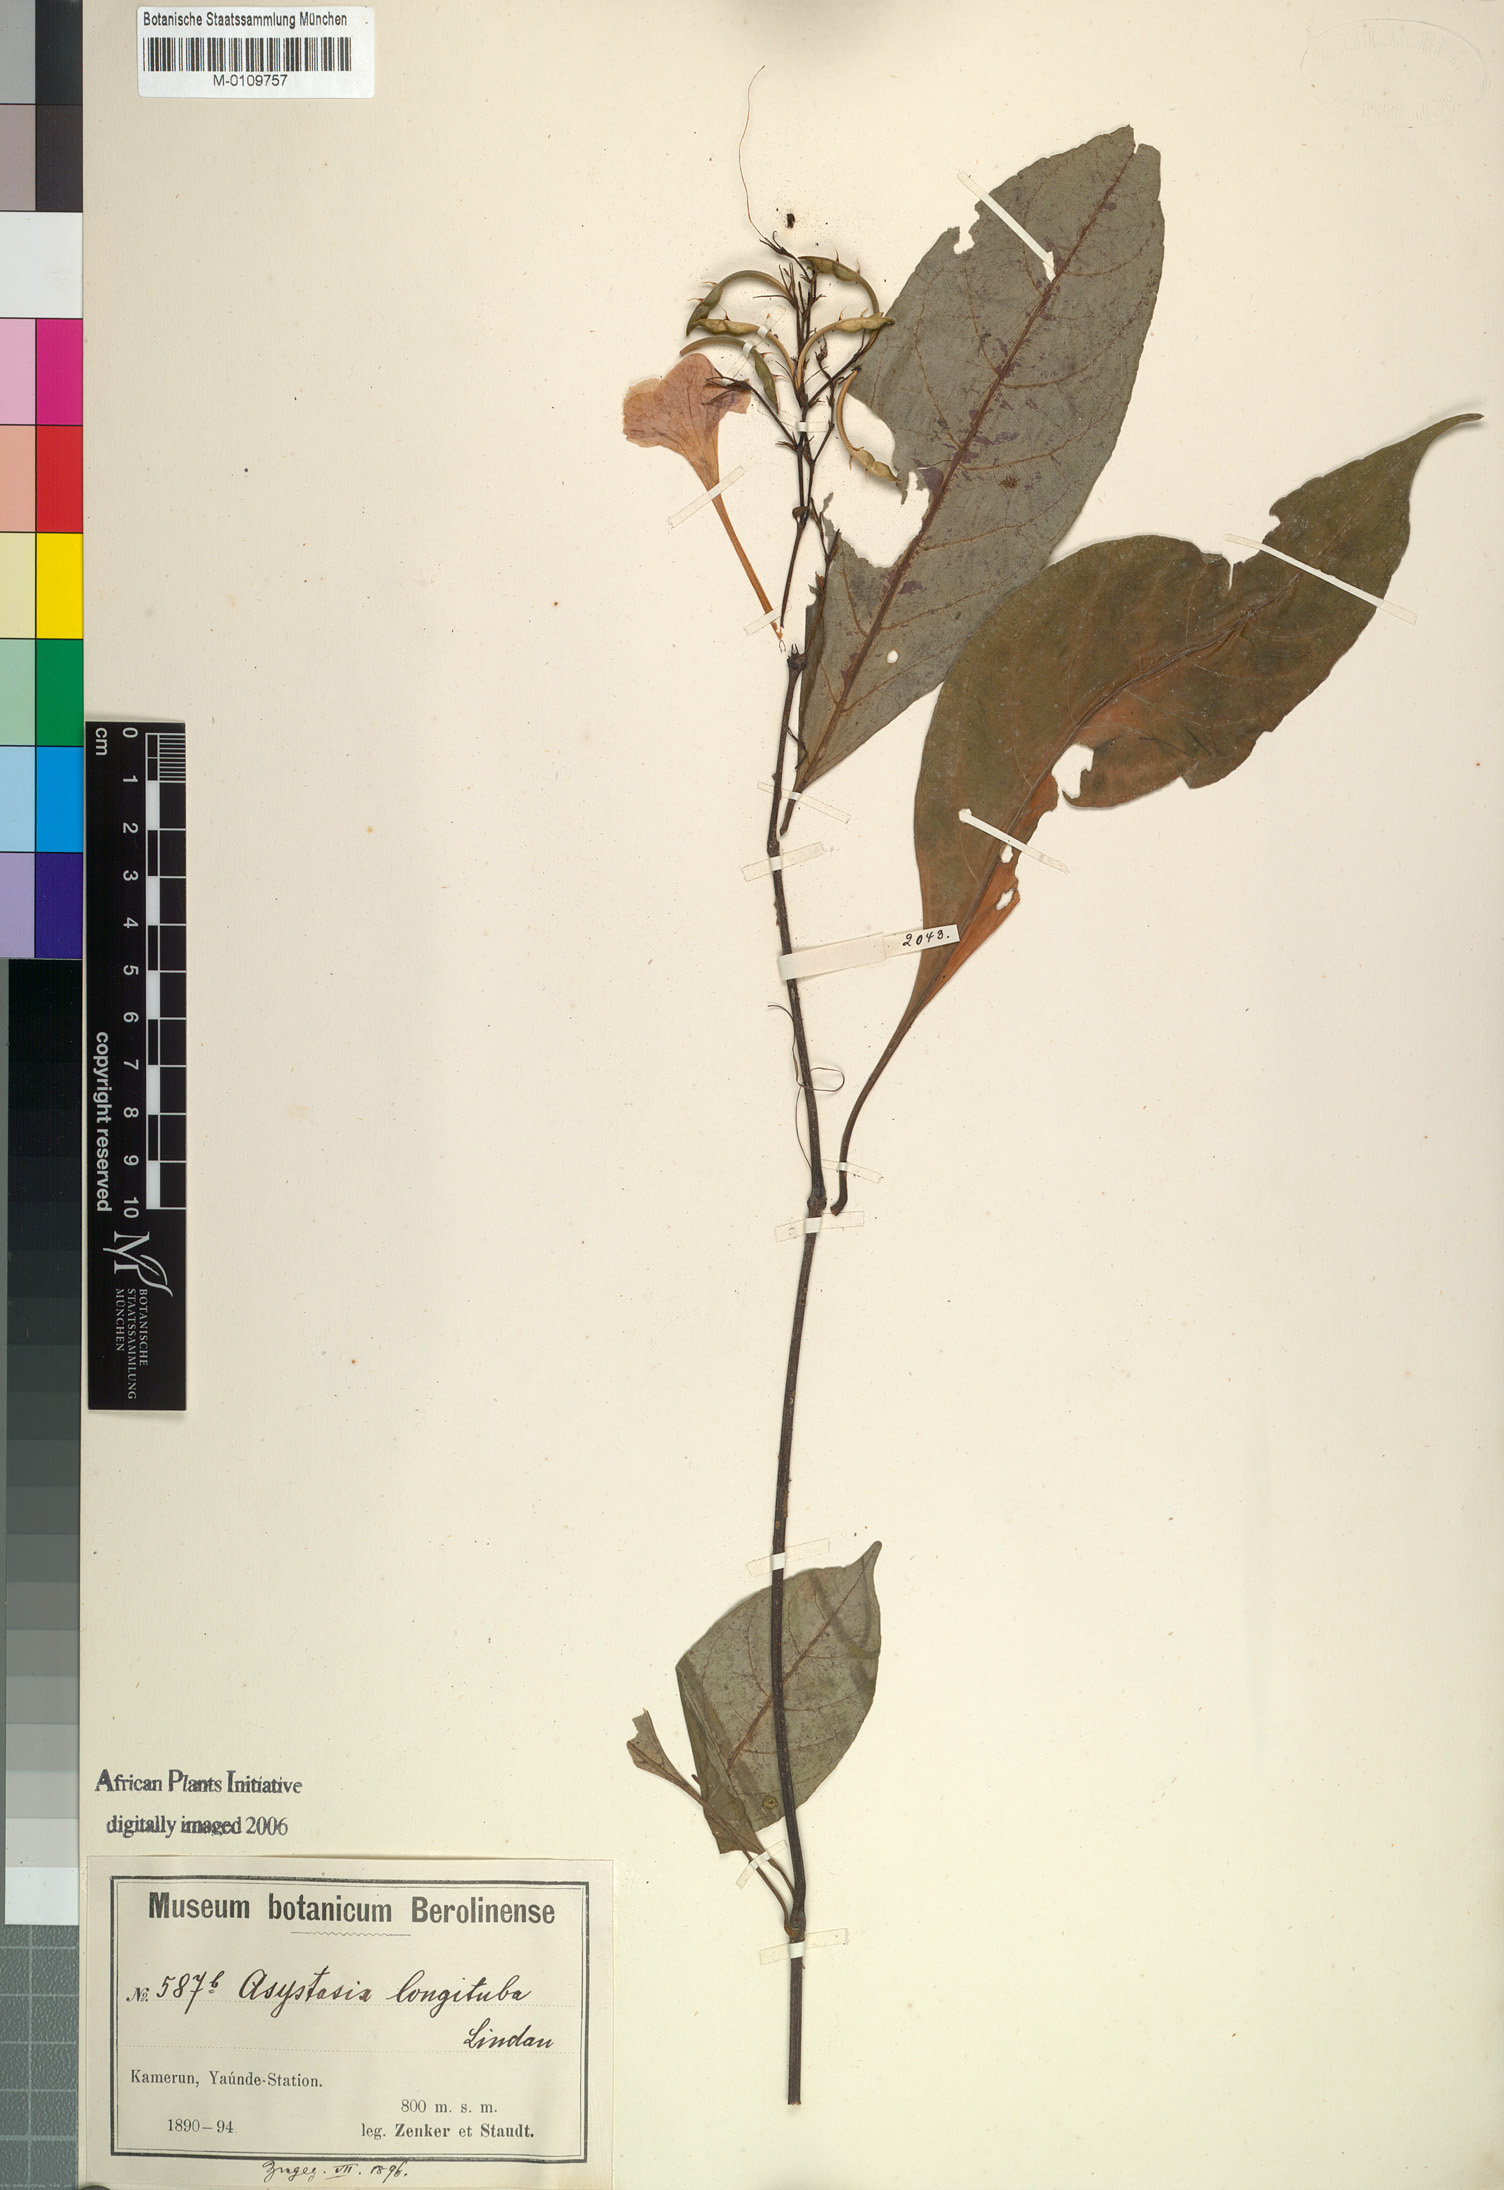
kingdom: Plantae
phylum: Tracheophyta
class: Magnoliopsida
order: Lamiales
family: Acanthaceae
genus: Asystasia
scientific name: Asystasia vogeliana
